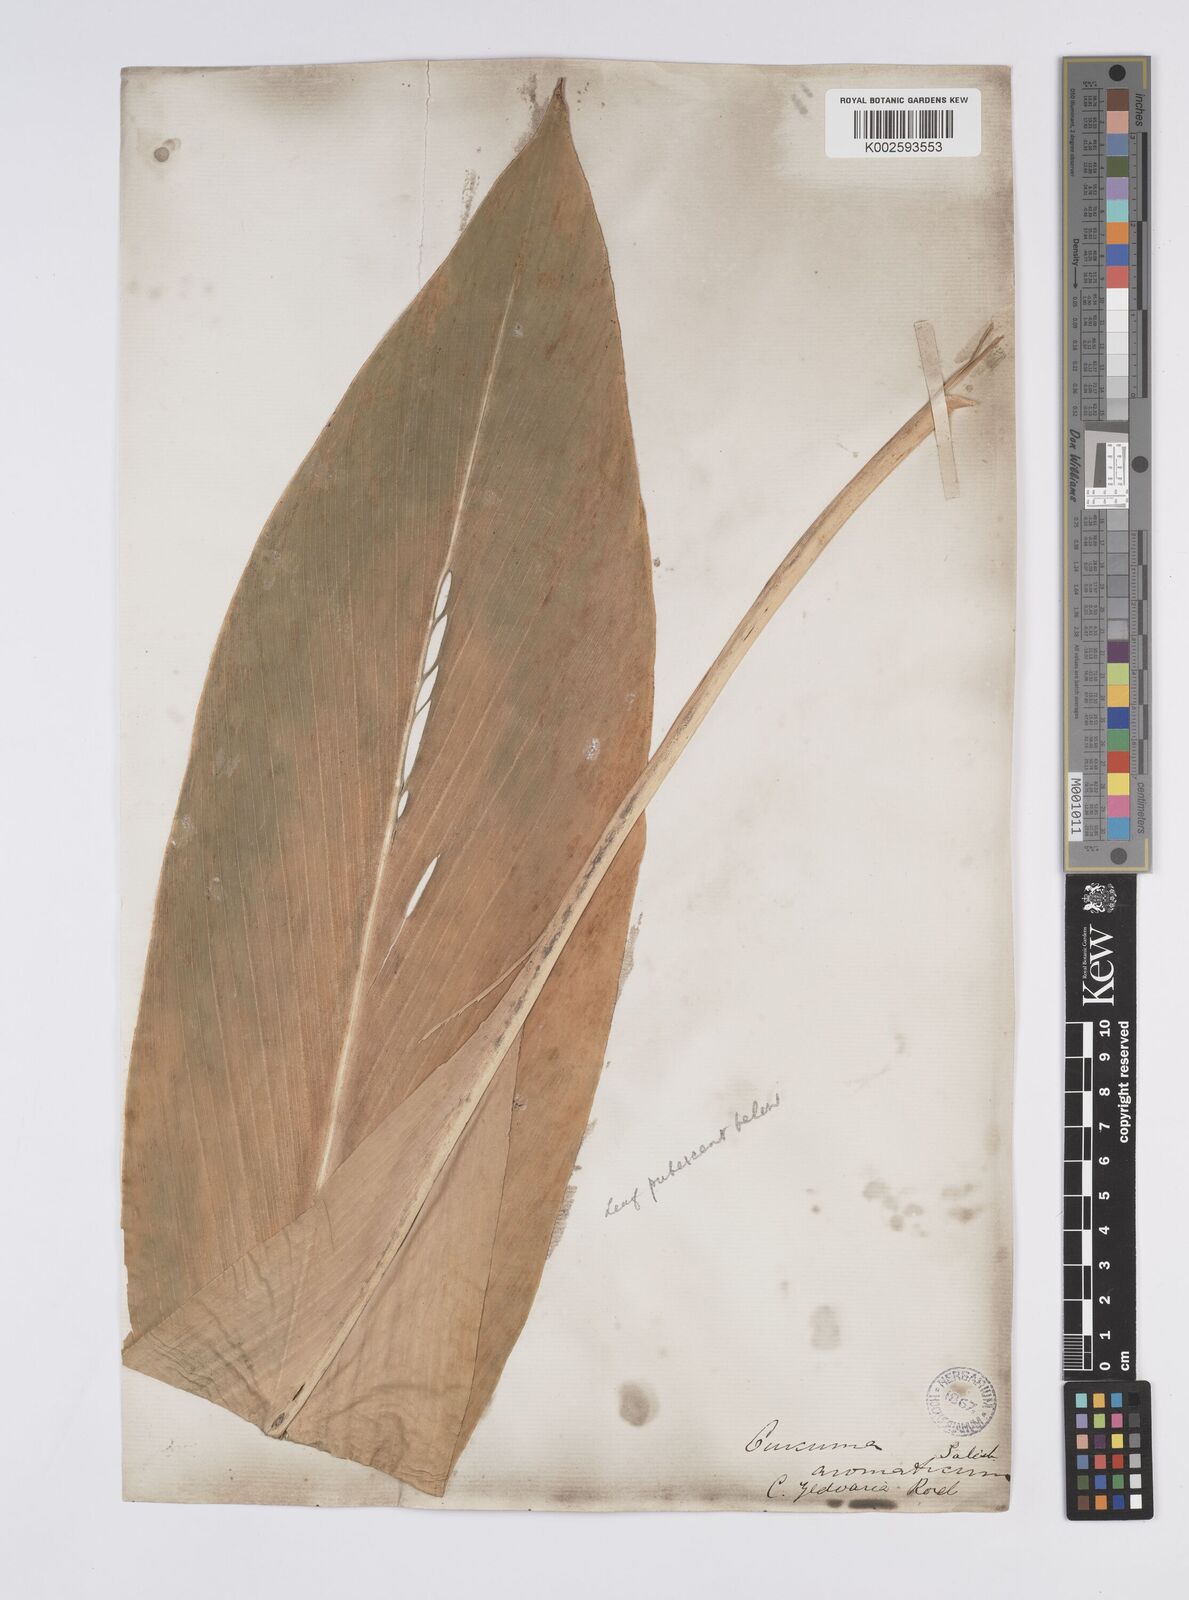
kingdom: Plantae
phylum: Tracheophyta
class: Liliopsida
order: Zingiberales
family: Zingiberaceae
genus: Curcuma
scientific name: Curcuma aromatica
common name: Wild turmeric
